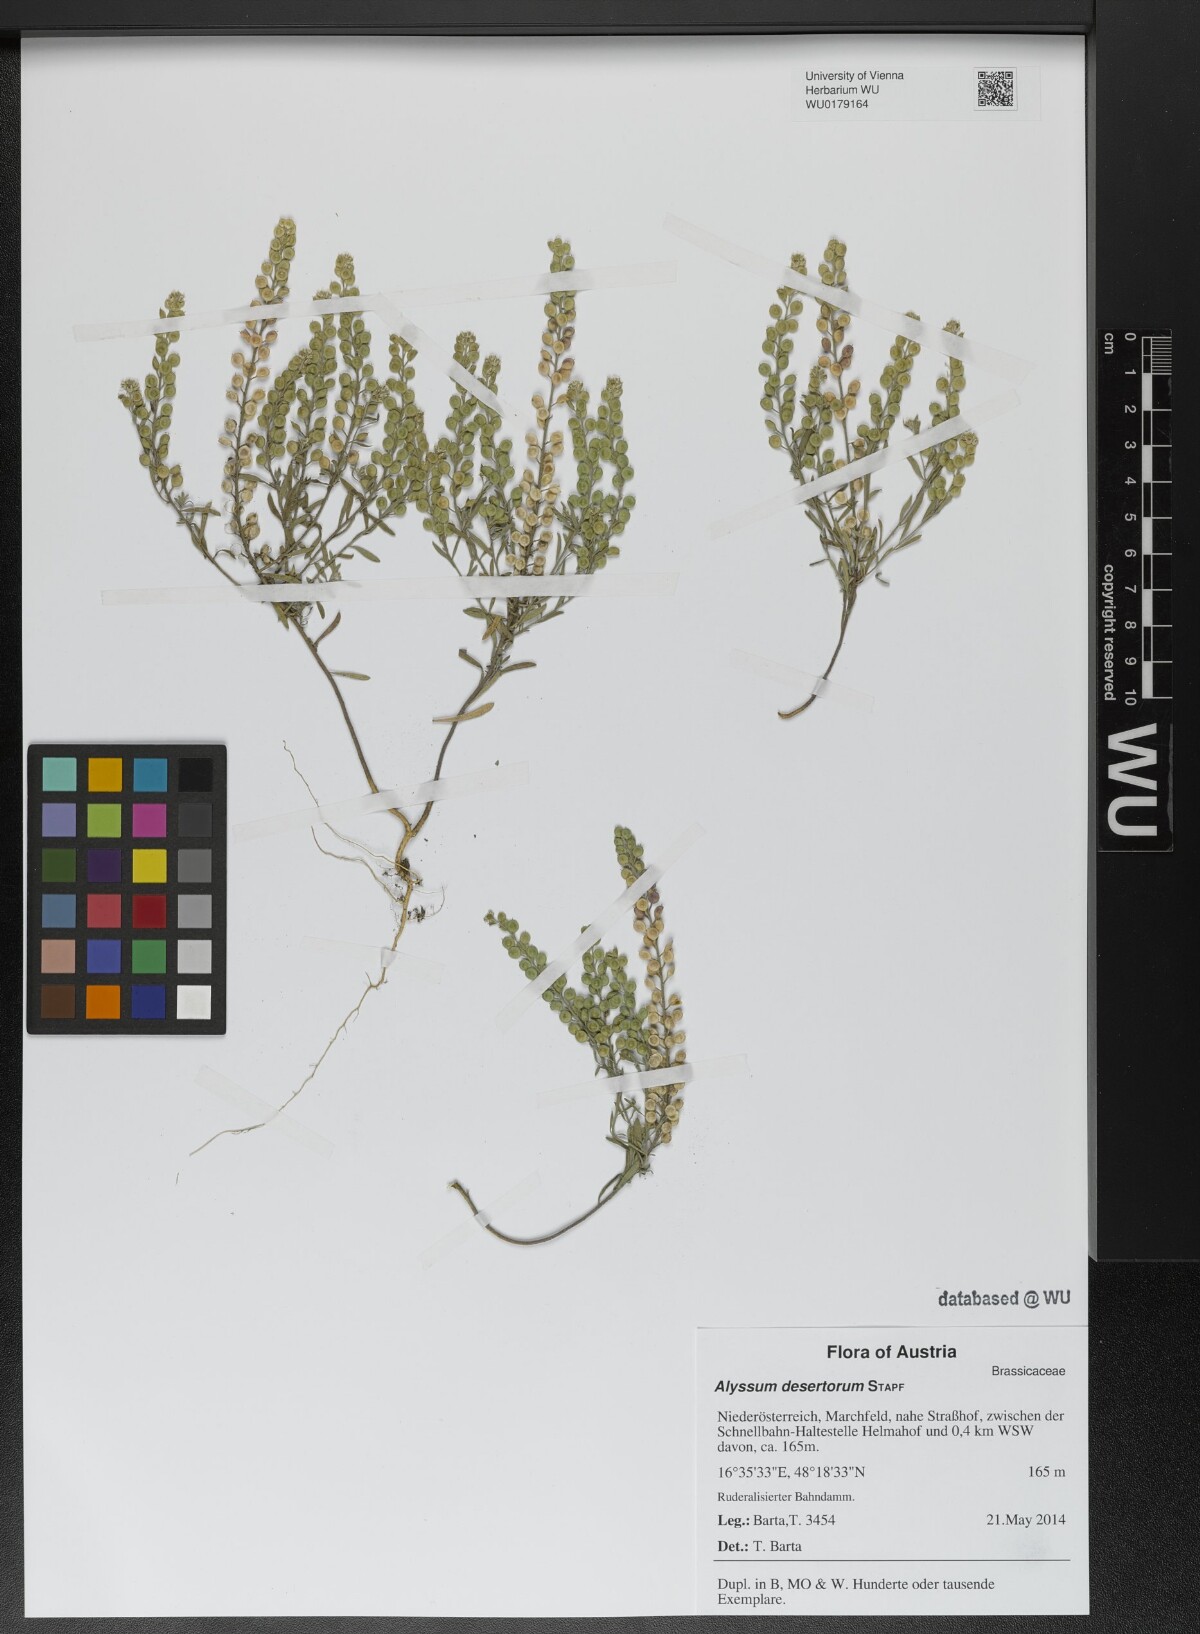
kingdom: Plantae
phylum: Tracheophyta
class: Magnoliopsida
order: Brassicales
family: Brassicaceae
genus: Alyssum
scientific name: Alyssum turkestanicum
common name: Desert alyssum
